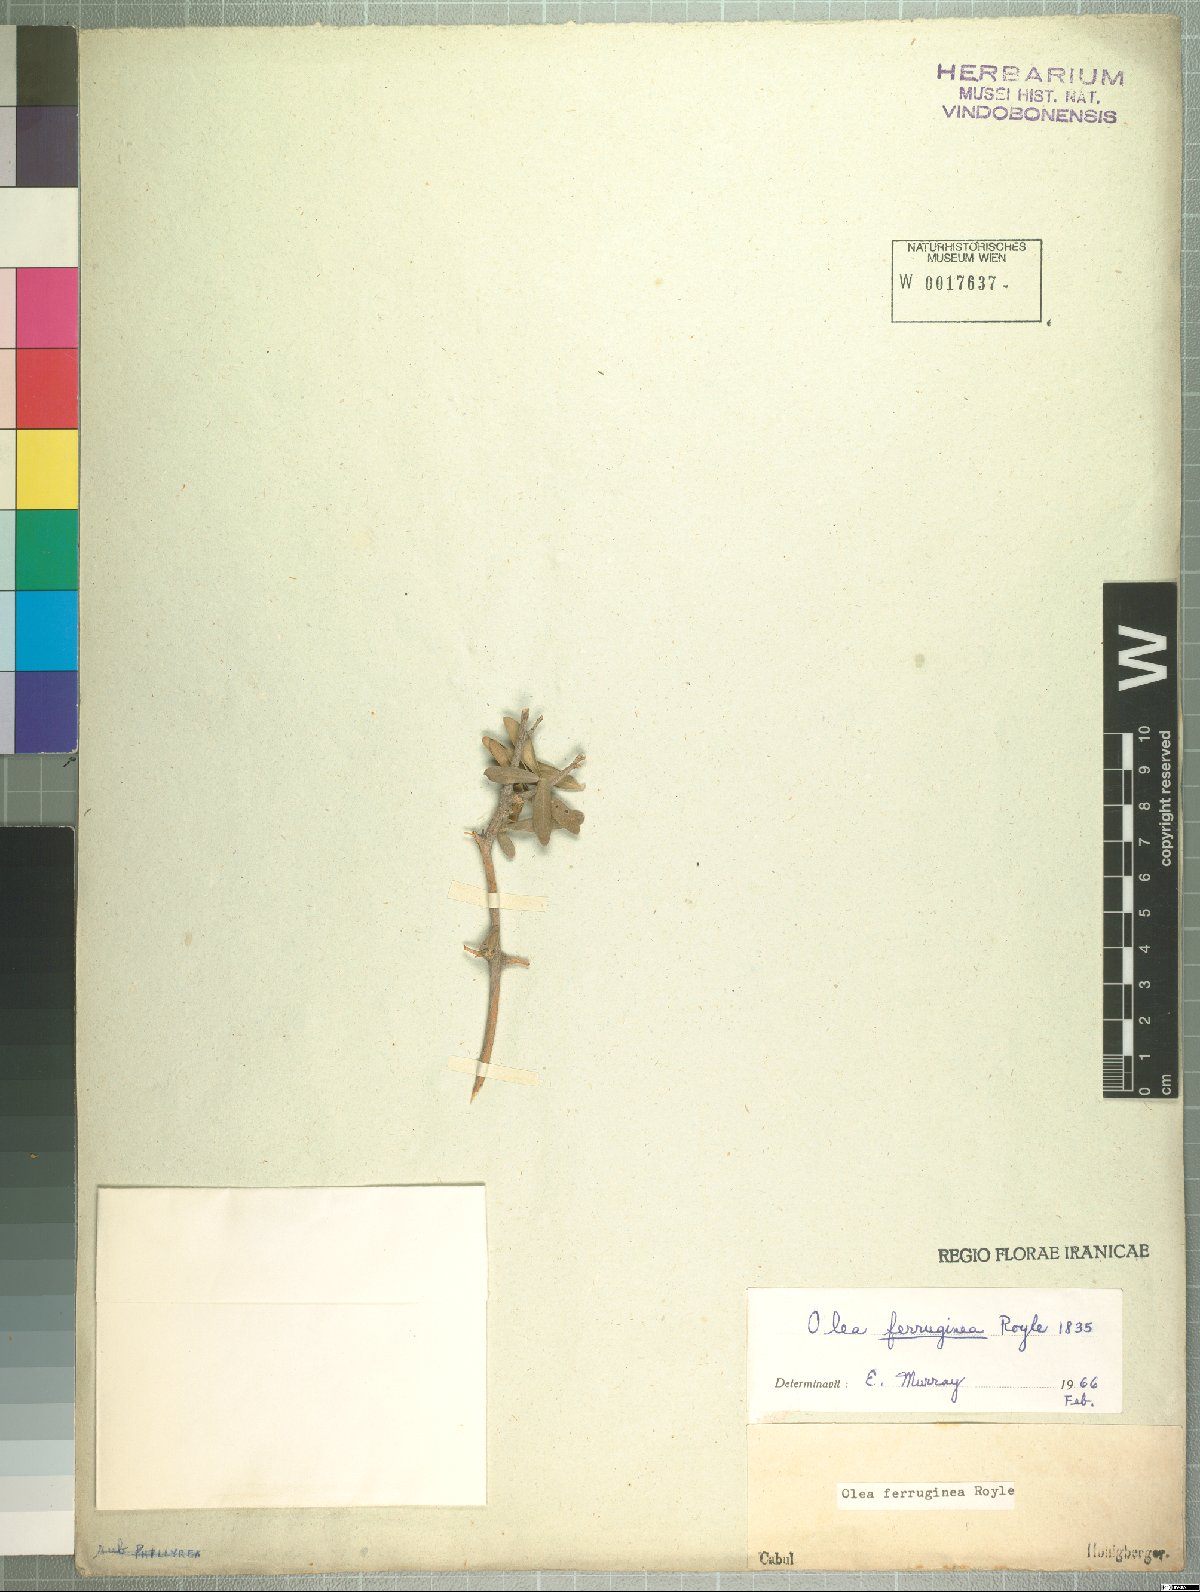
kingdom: Plantae
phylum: Tracheophyta
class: Magnoliopsida
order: Lamiales
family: Oleaceae
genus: Olea
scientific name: Olea europaea
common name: Olive
